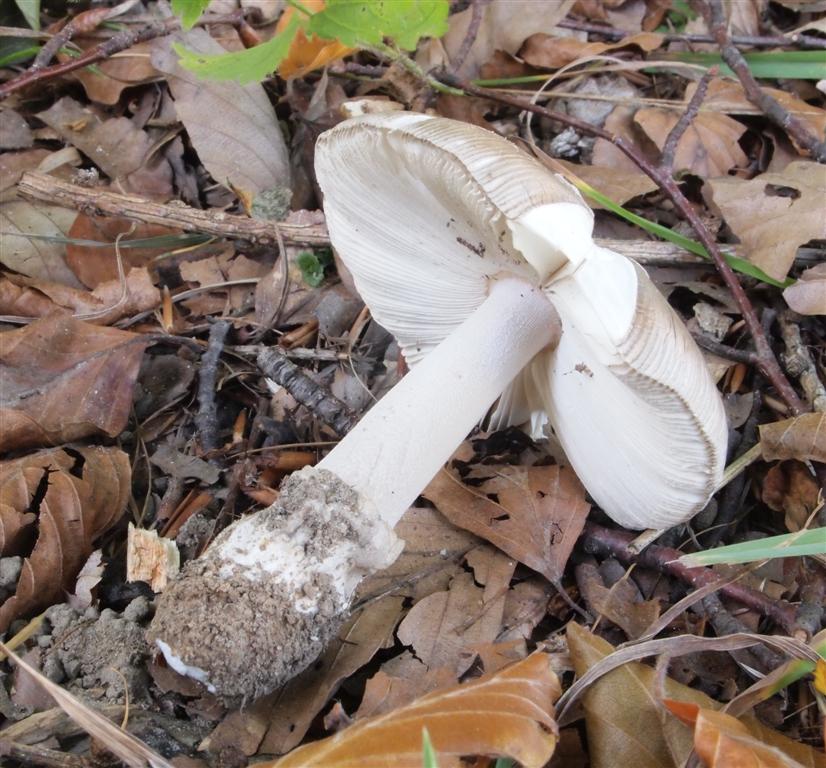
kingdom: Fungi
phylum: Basidiomycota
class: Agaricomycetes
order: Agaricales
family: Amanitaceae
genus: Amanita
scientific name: Amanita submembranacea
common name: gråspættet kam-fluesvamp
